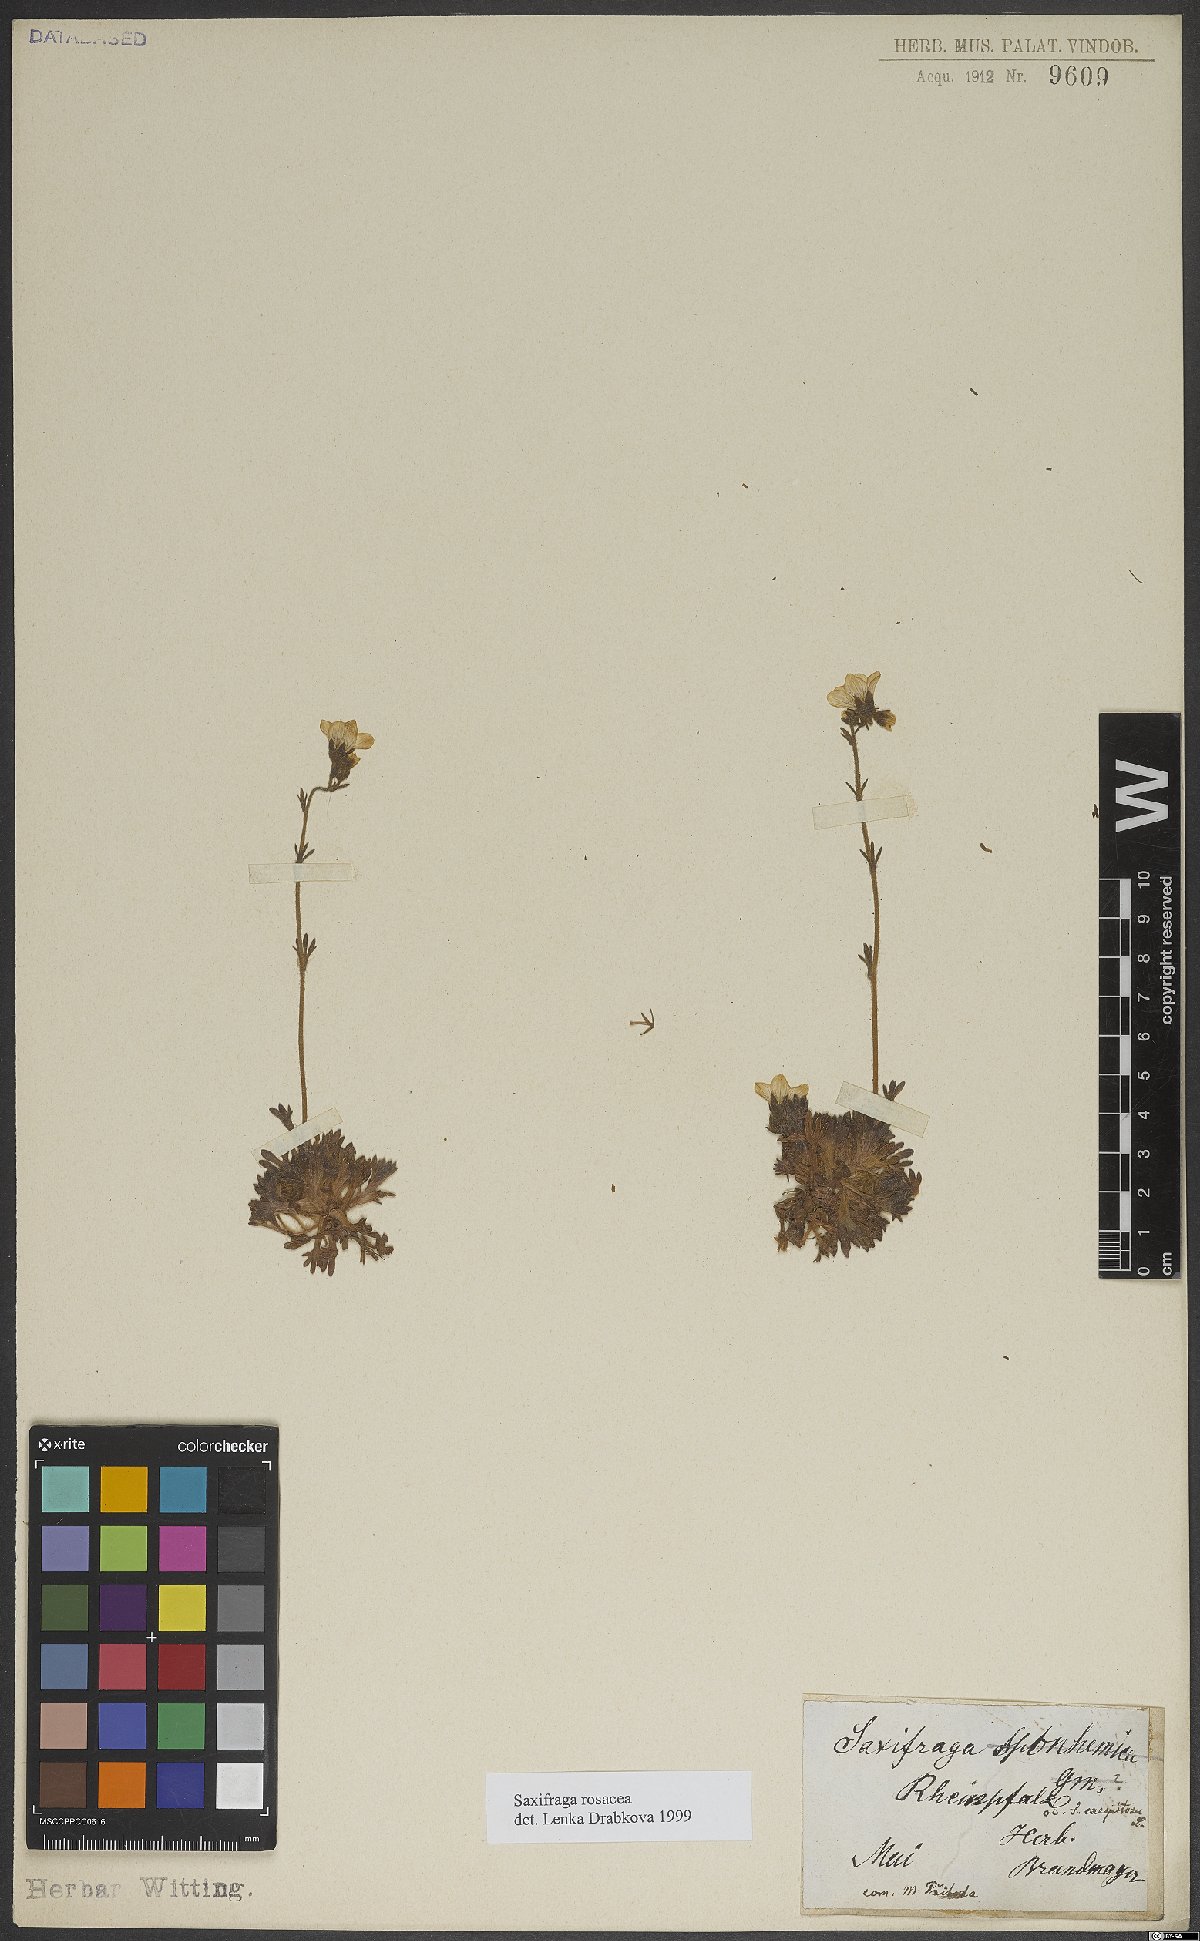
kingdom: Plantae
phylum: Tracheophyta
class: Magnoliopsida
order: Saxifragales
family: Saxifragaceae
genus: Saxifraga
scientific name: Saxifraga rosacea
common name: Irish saxifrage
